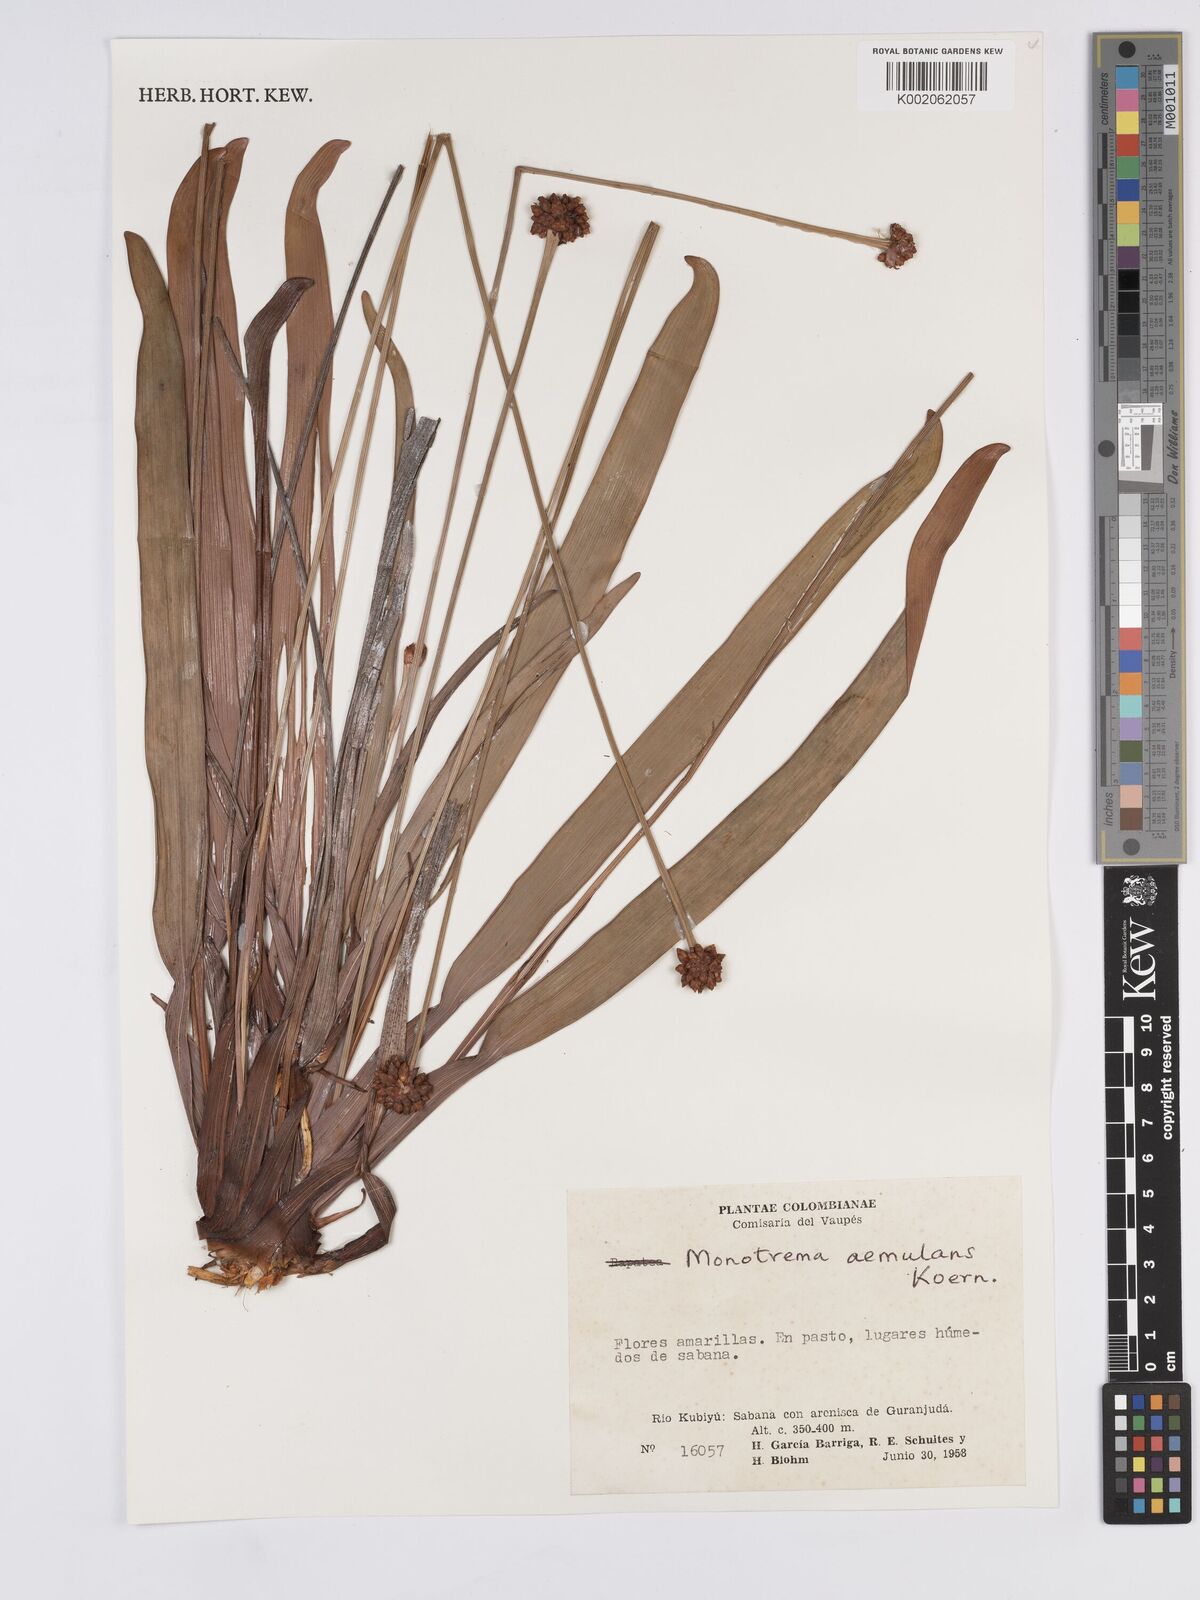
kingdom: Plantae
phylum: Tracheophyta
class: Liliopsida
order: Poales
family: Rapateaceae
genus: Monotrema
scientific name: Monotrema aemulans
